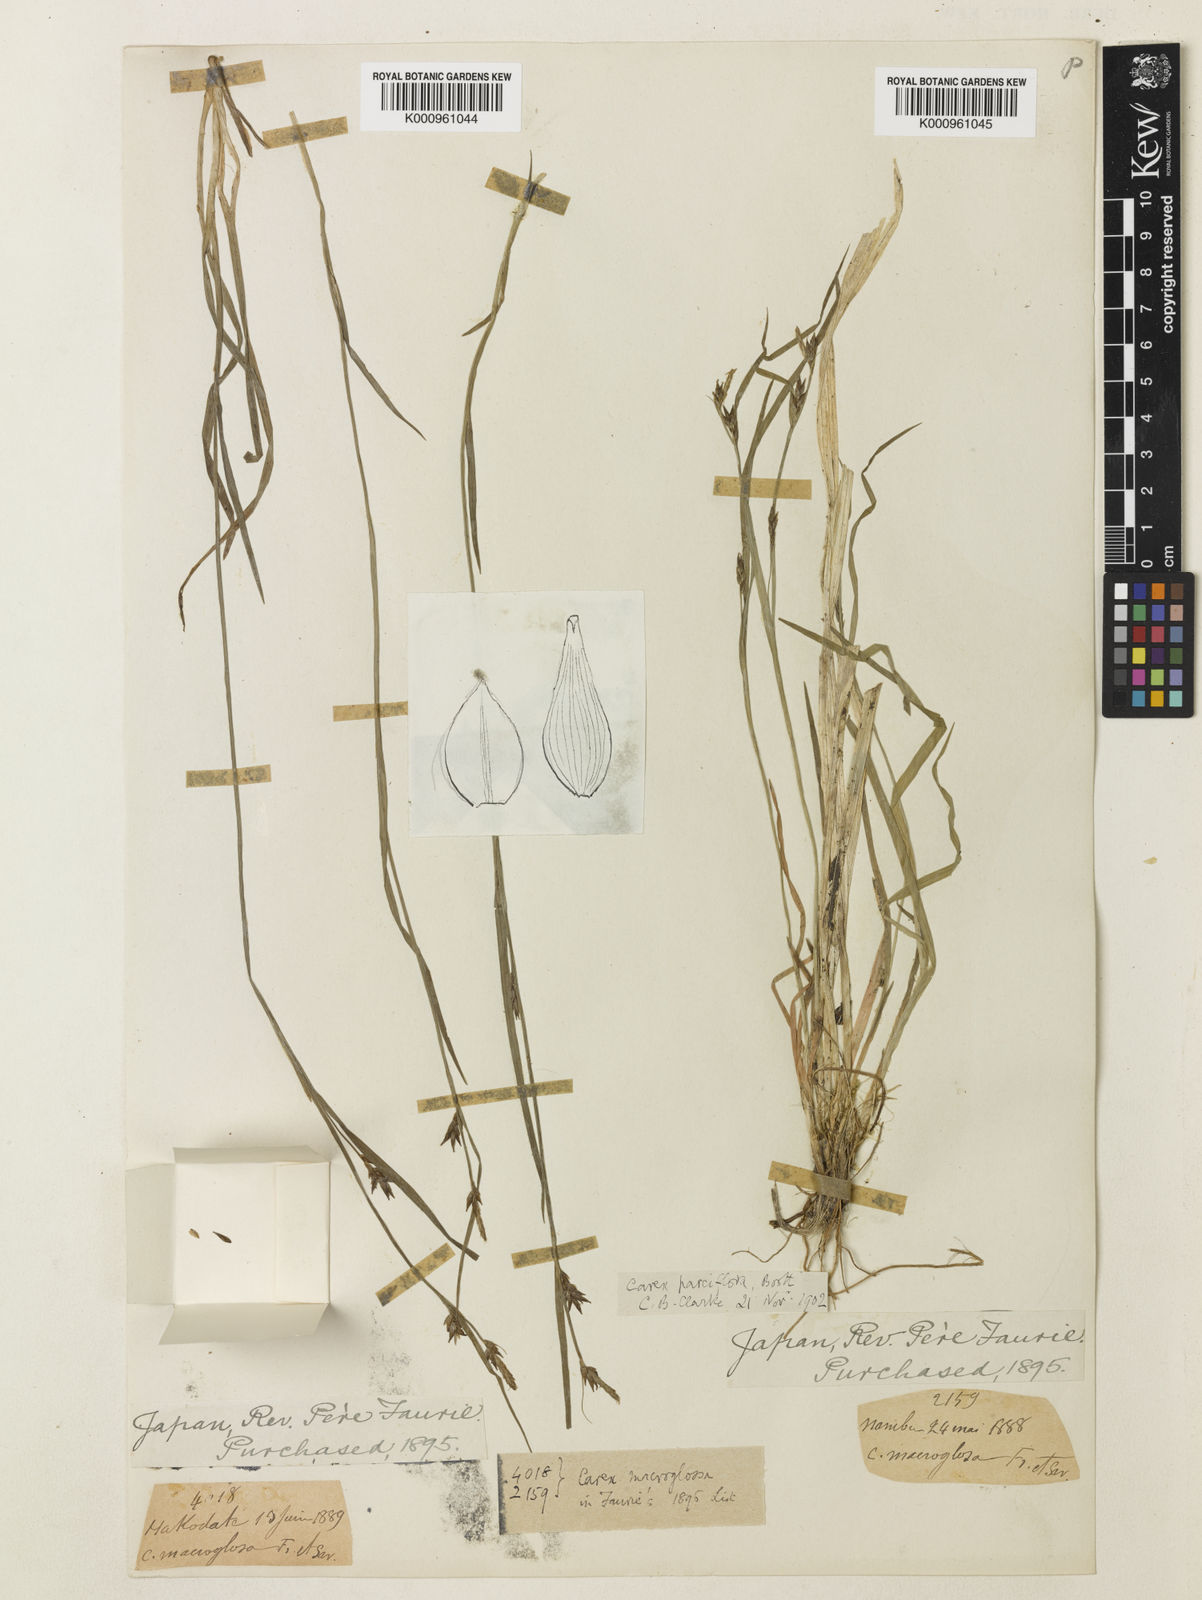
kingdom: Plantae
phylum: Tracheophyta
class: Liliopsida
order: Poales
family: Cyperaceae
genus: Carex
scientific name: Carex jackiana
